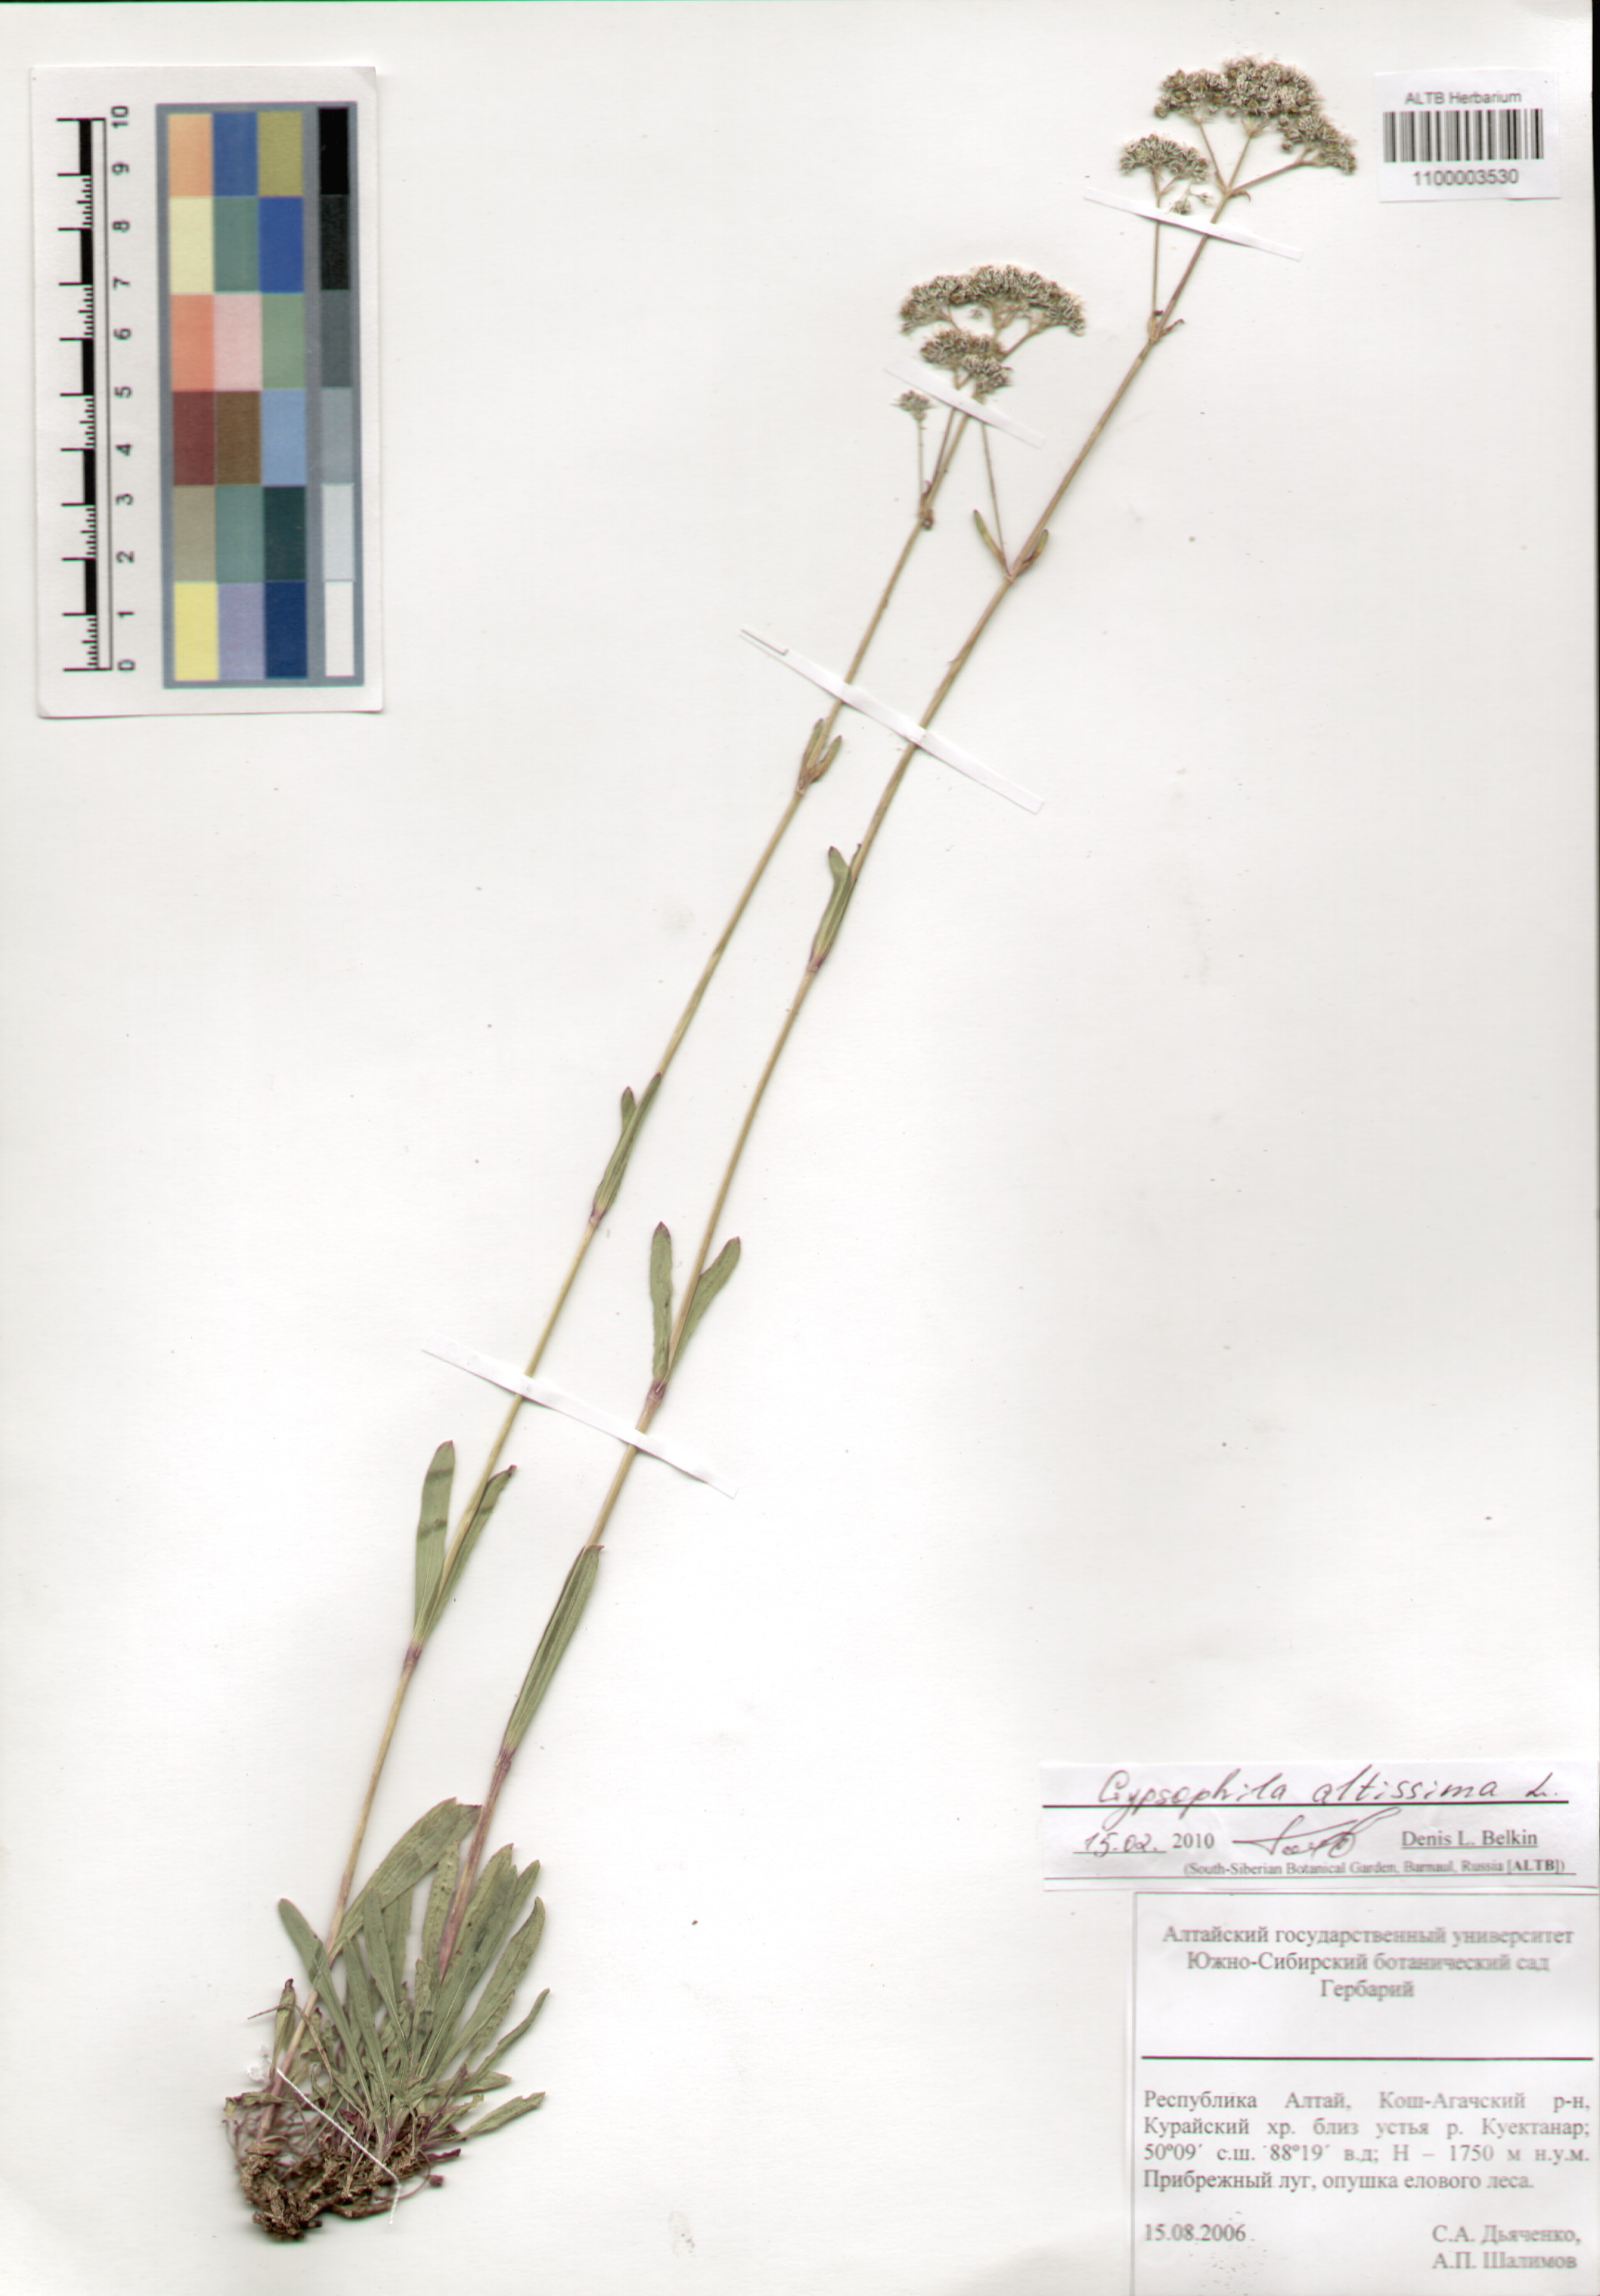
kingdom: Plantae
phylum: Tracheophyta
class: Magnoliopsida
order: Caryophyllales
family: Caryophyllaceae
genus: Gypsophila
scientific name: Gypsophila altissima
